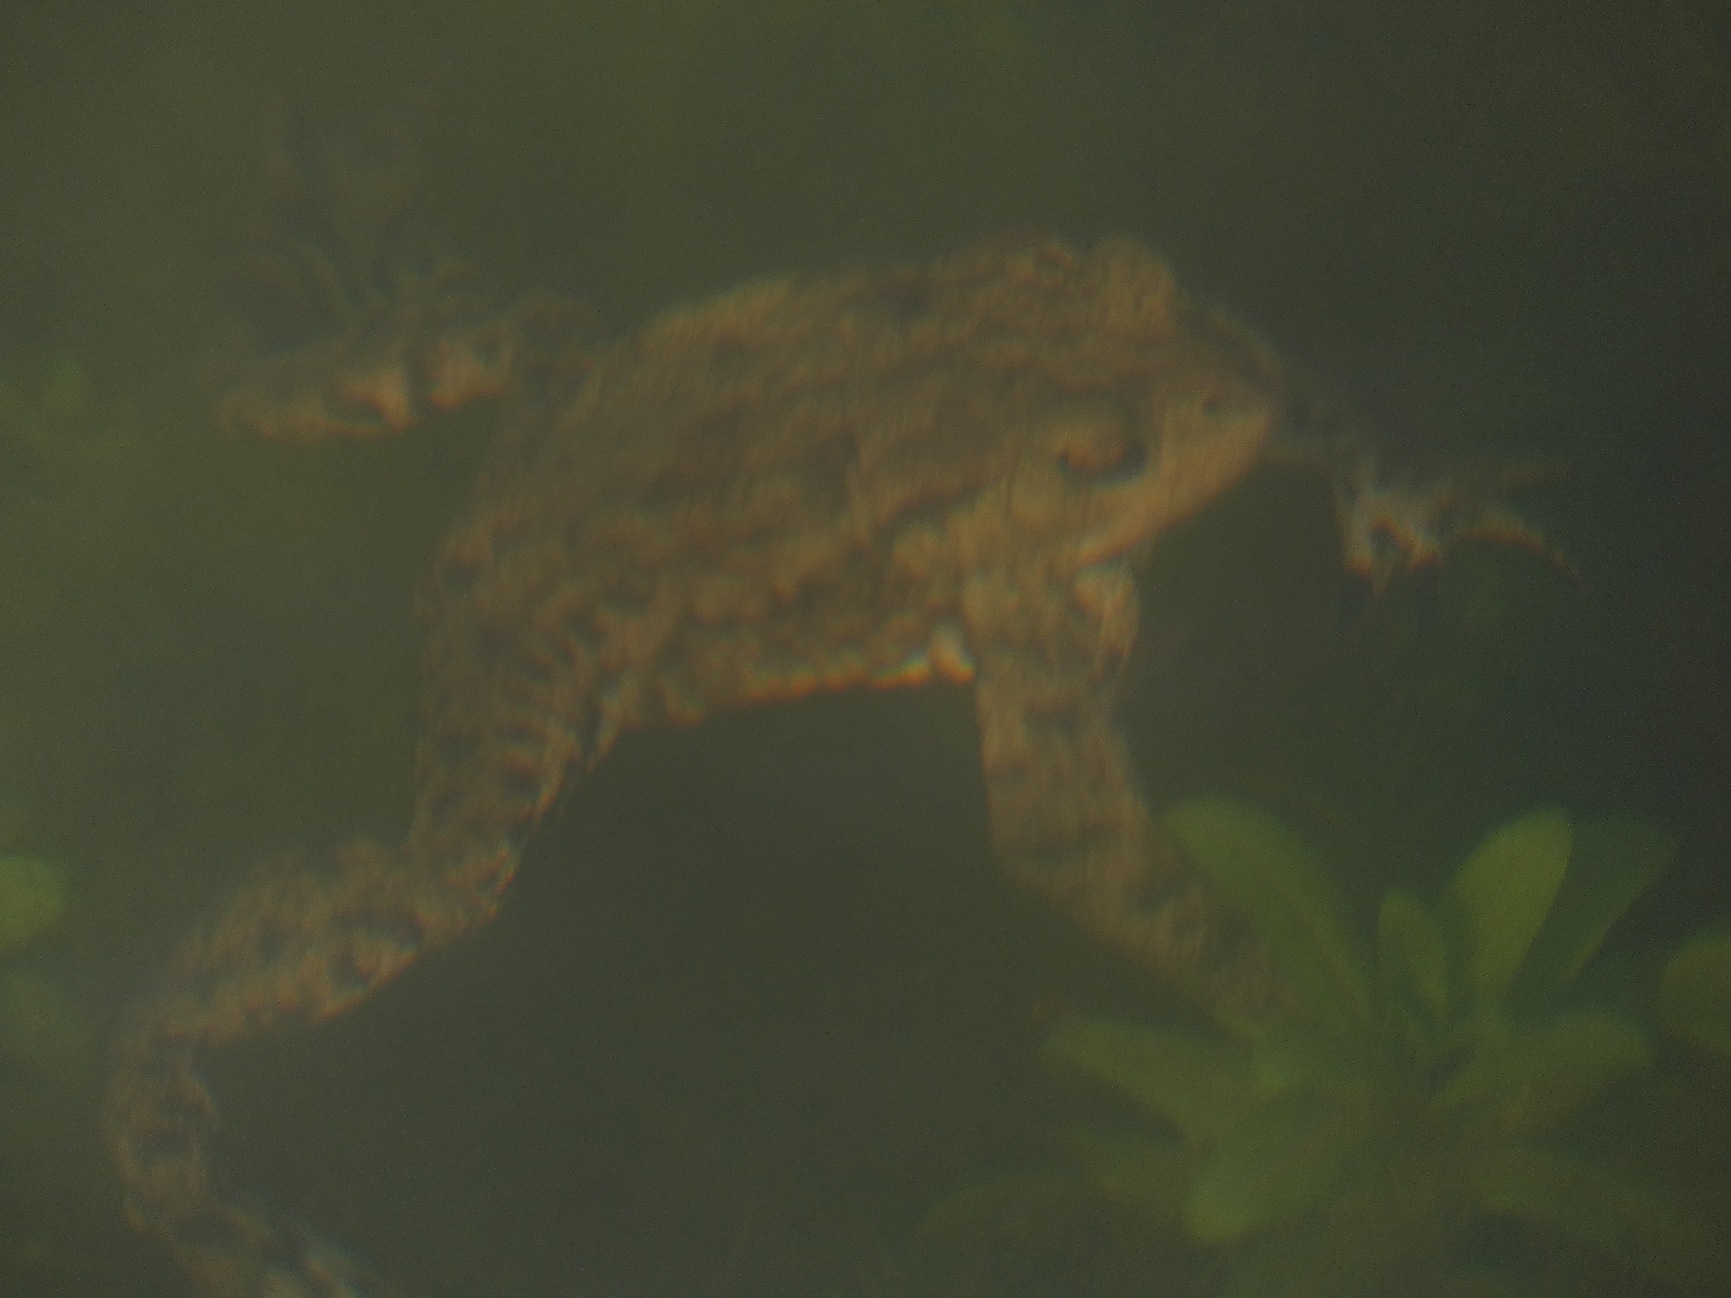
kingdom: Animalia
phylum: Chordata
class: Amphibia
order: Anura
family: Bufonidae
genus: Bufo
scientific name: Bufo bufo
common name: Skrubtudse
